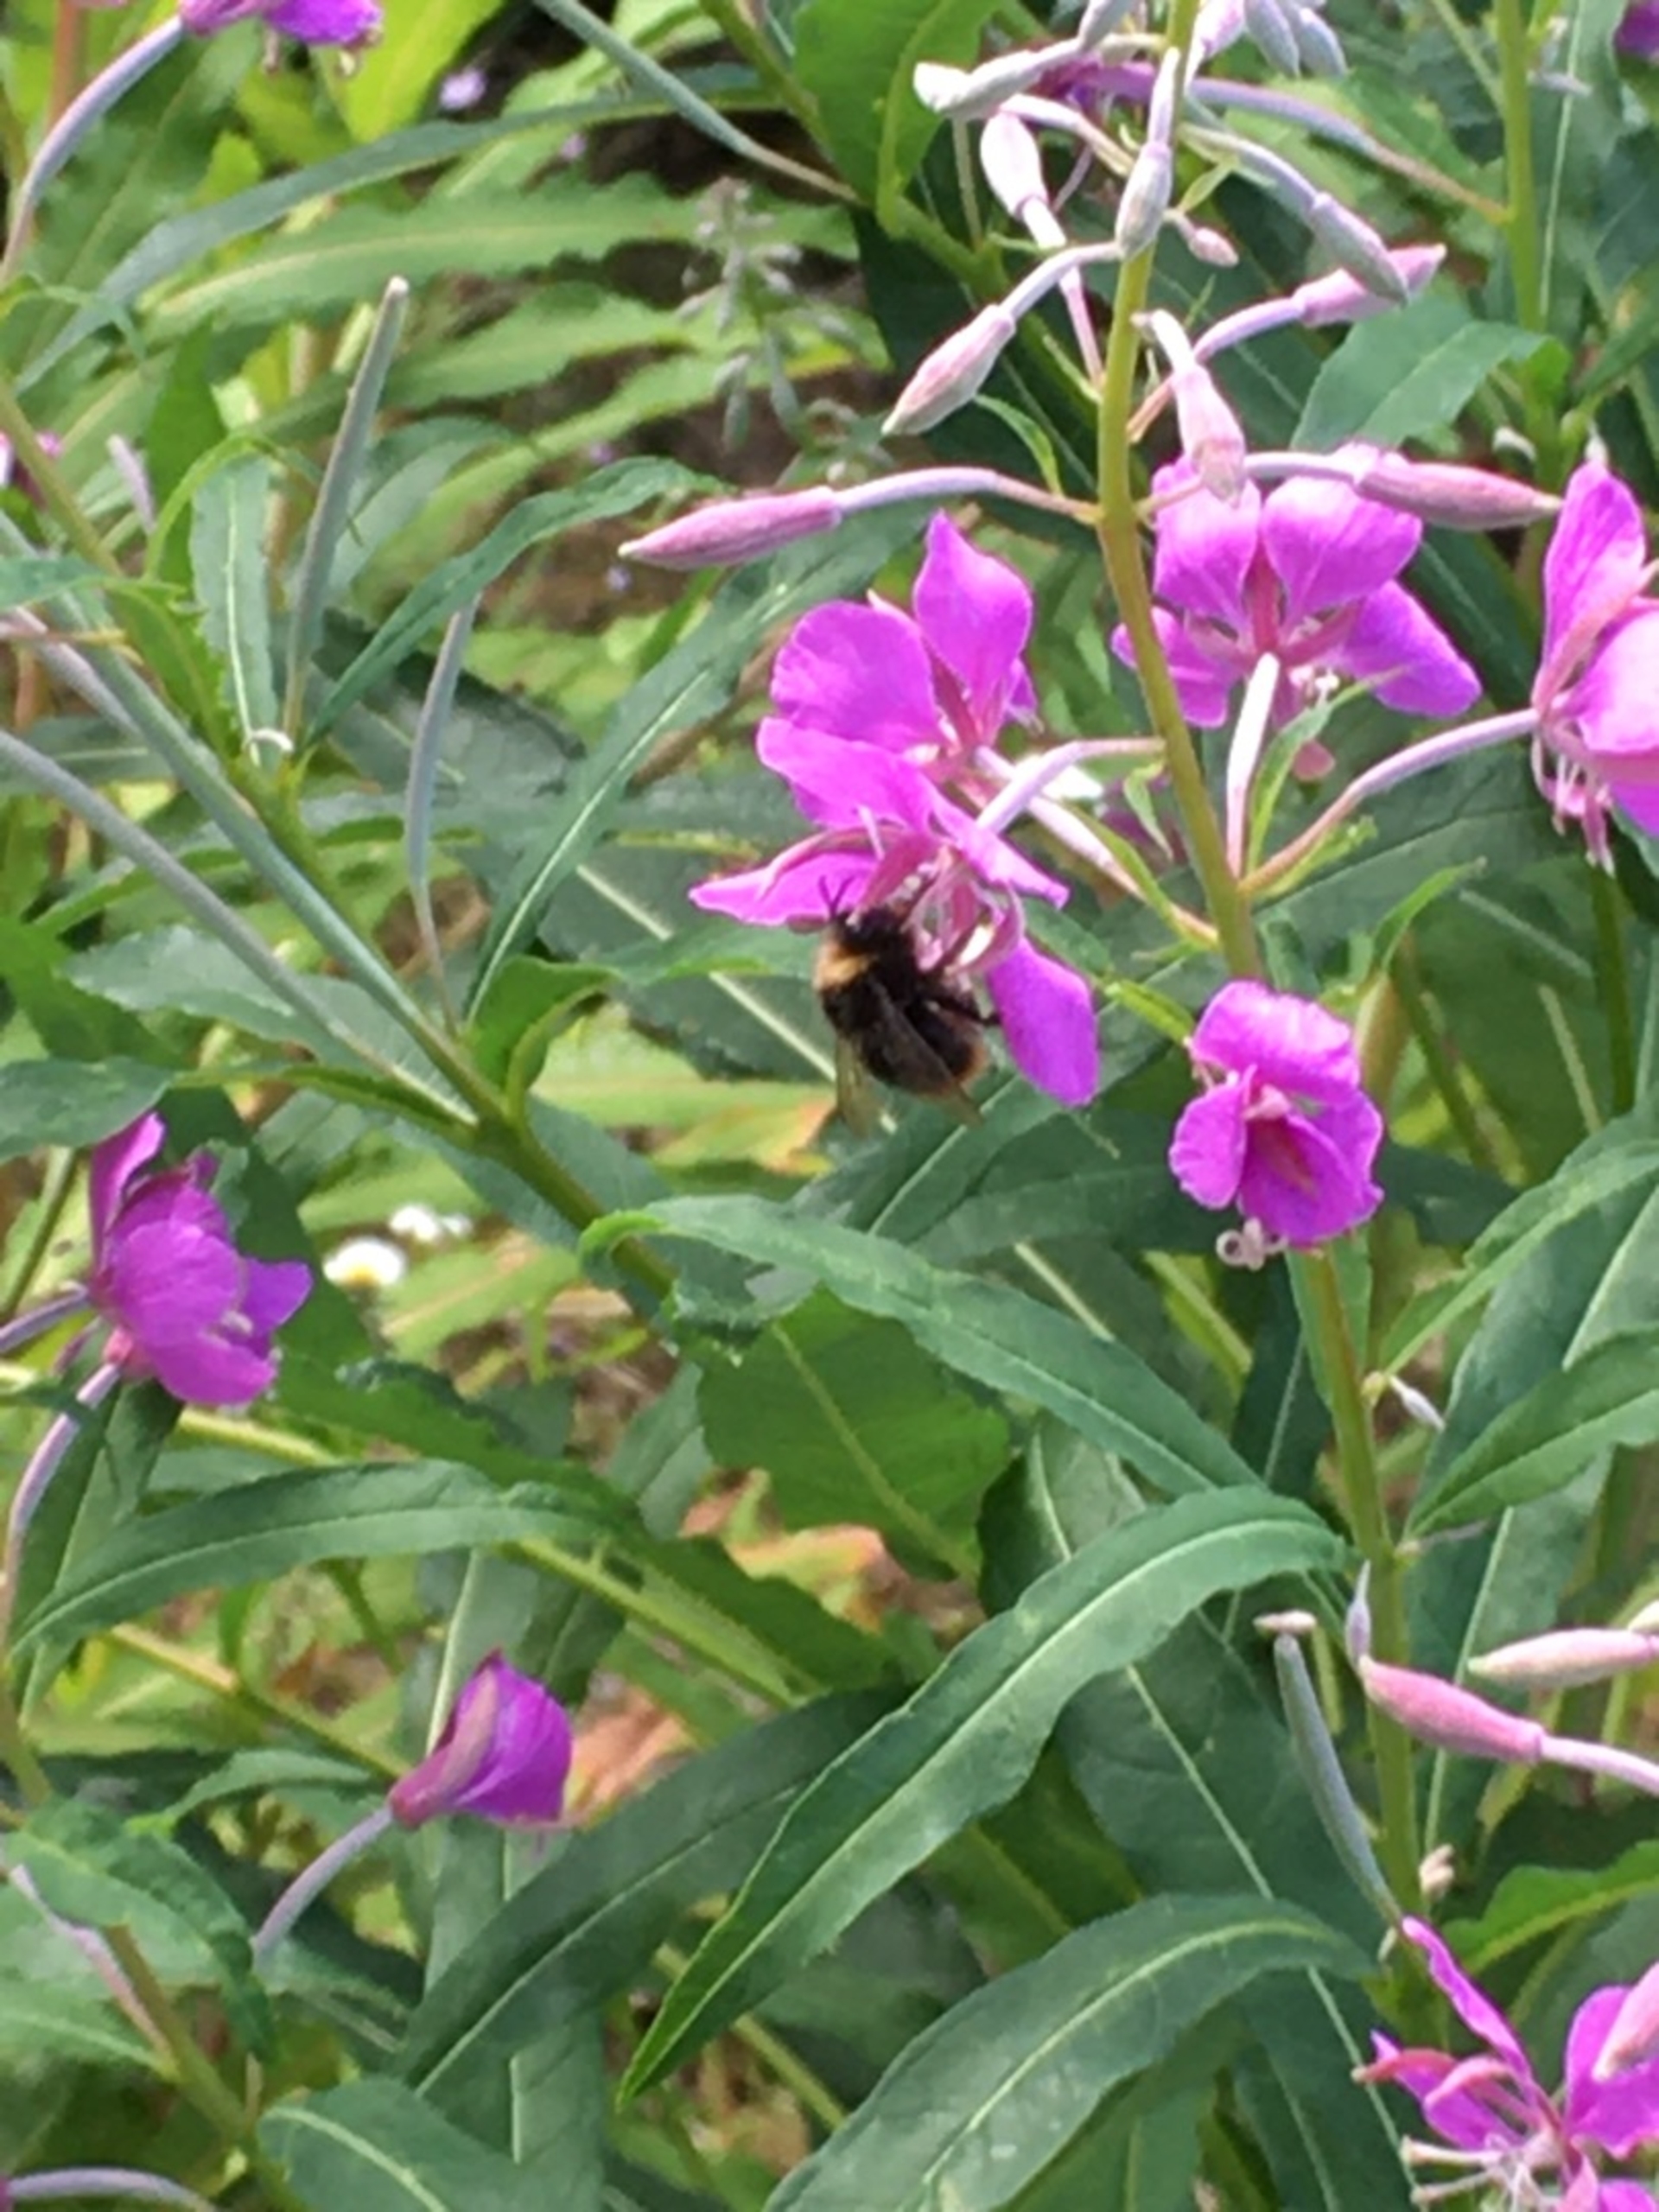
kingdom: Plantae
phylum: Tracheophyta
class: Magnoliopsida
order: Myrtales
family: Onagraceae
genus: Chamaenerion
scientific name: Chamaenerion angustifolium
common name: Gederams
